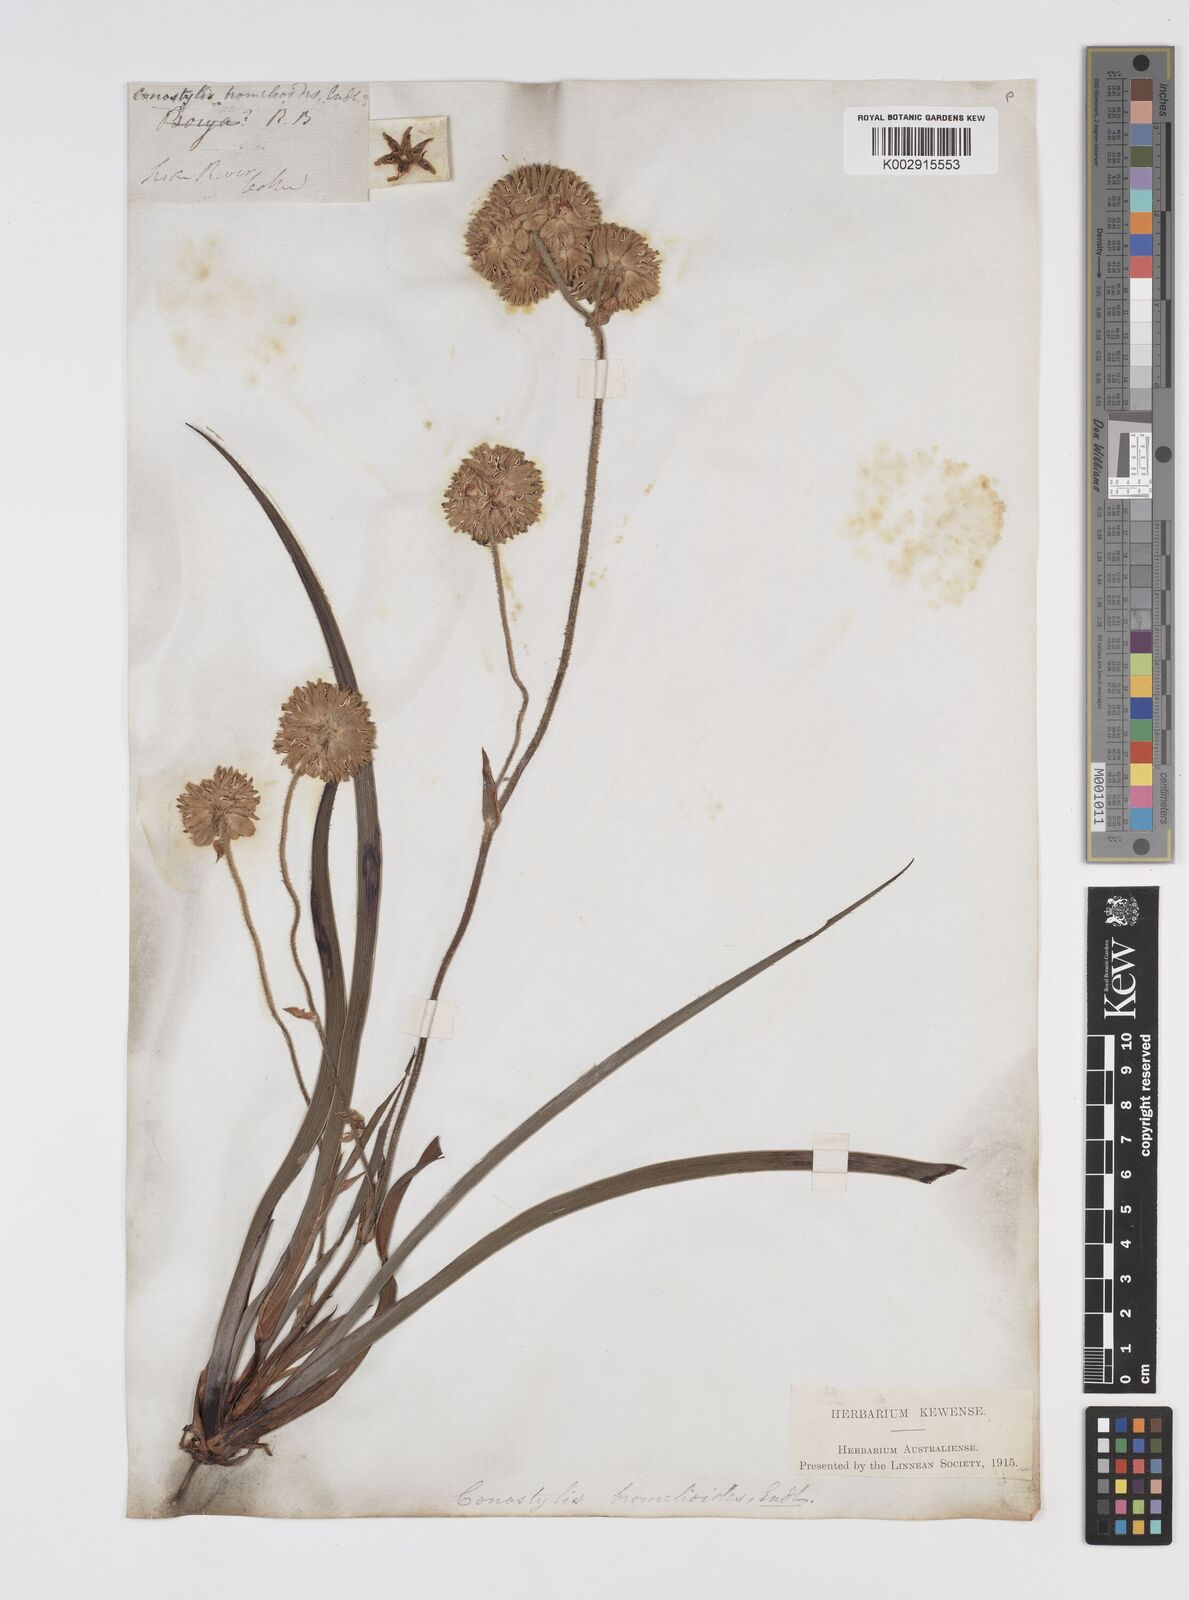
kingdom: Plantae
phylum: Tracheophyta
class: Liliopsida
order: Commelinales
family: Haemodoraceae
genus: Conostylis
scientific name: Conostylis aculeata
